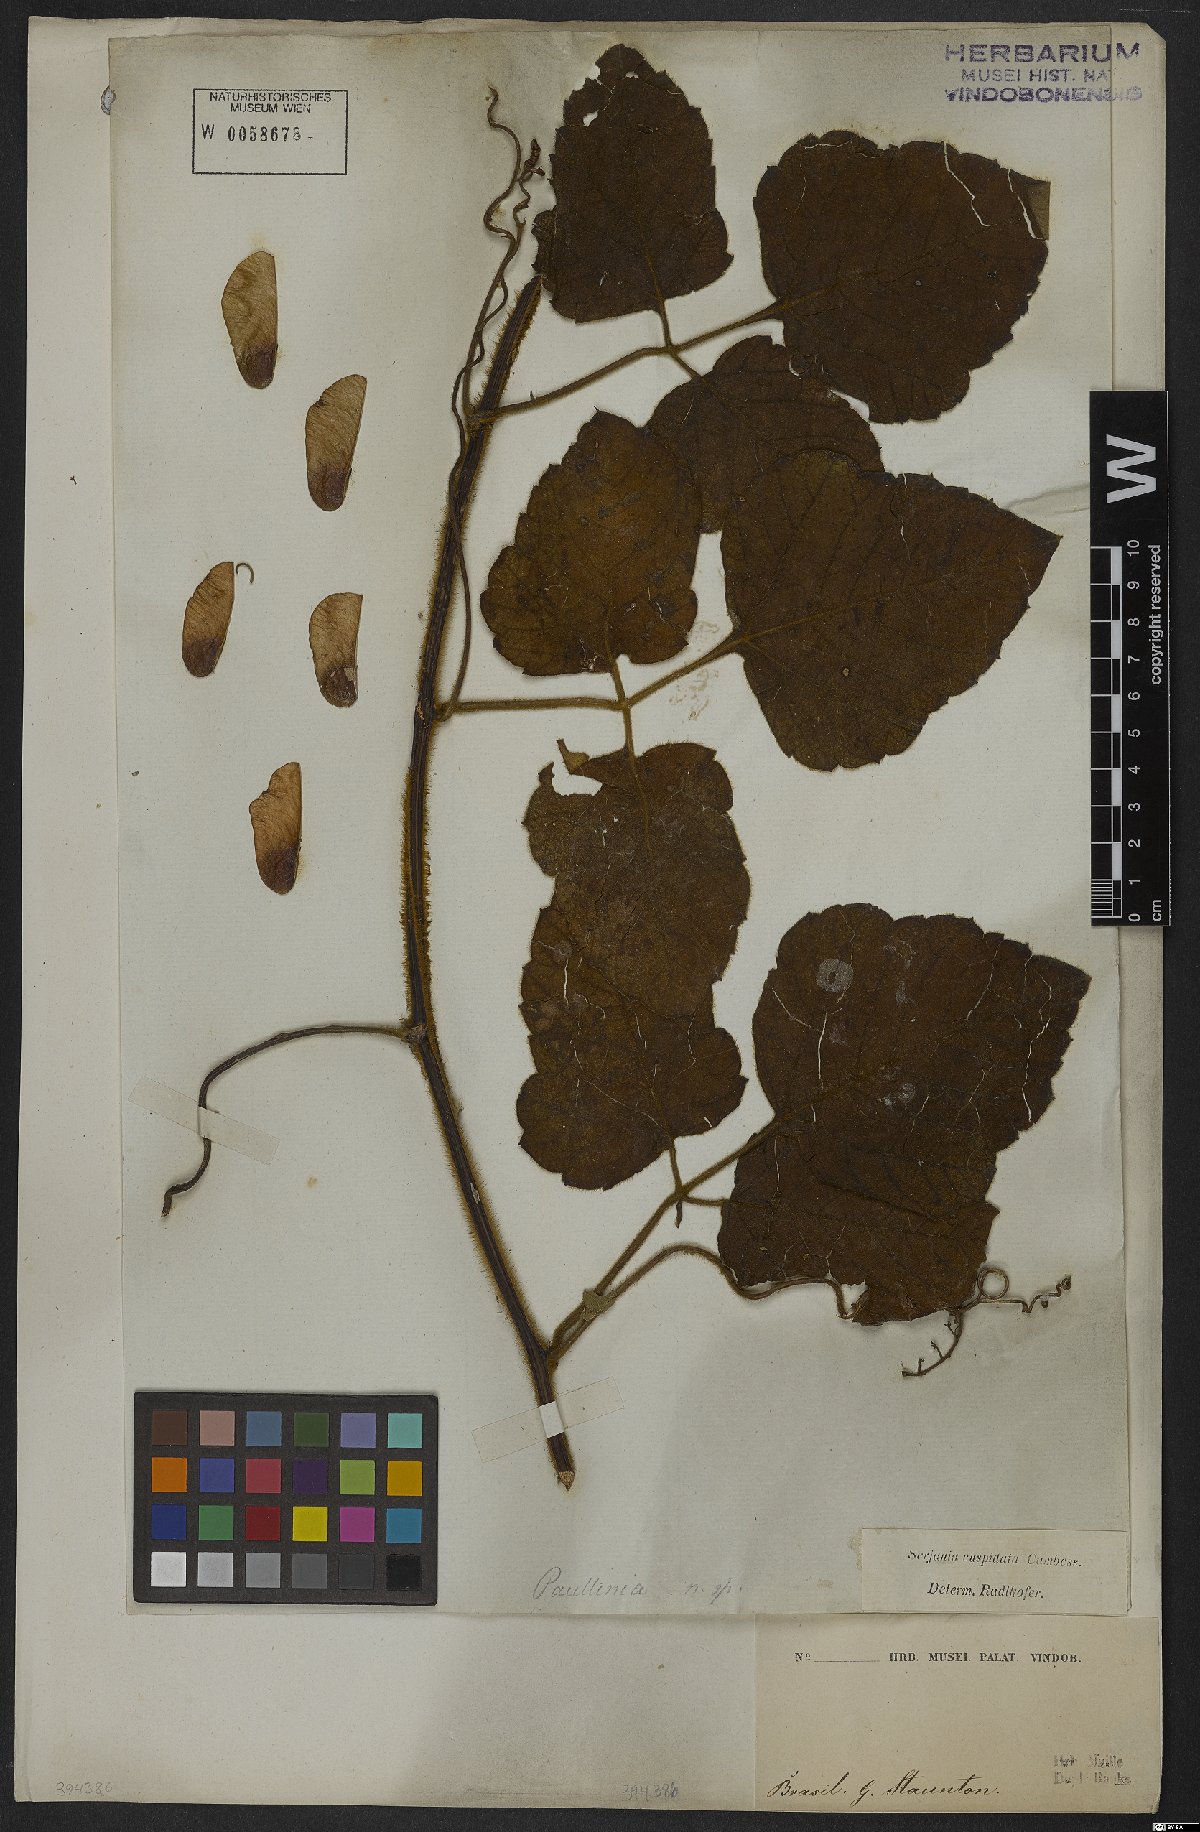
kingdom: Plantae
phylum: Tracheophyta
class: Magnoliopsida
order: Sapindales
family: Sapindaceae
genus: Serjania
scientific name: Serjania ferruginea
